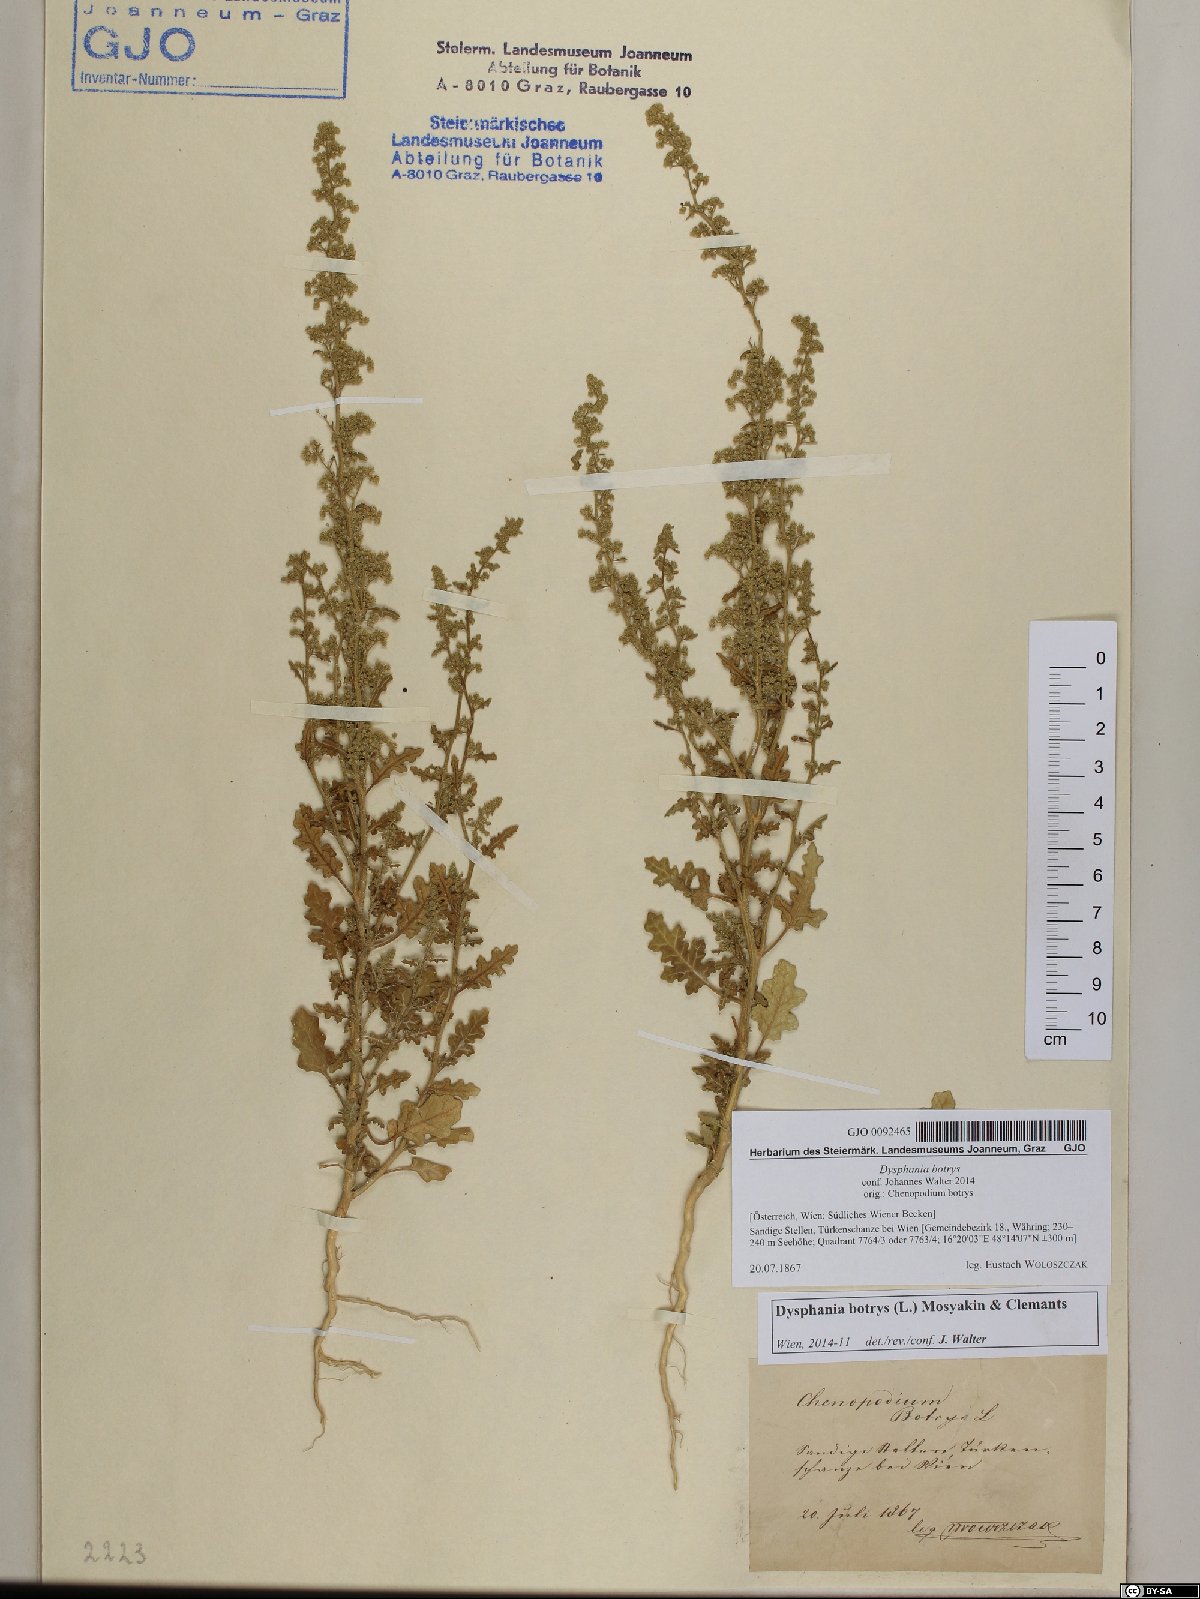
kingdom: Plantae
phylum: Tracheophyta
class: Magnoliopsida
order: Caryophyllales
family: Amaranthaceae
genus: Dysphania
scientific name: Dysphania botrys
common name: Feather-geranium
